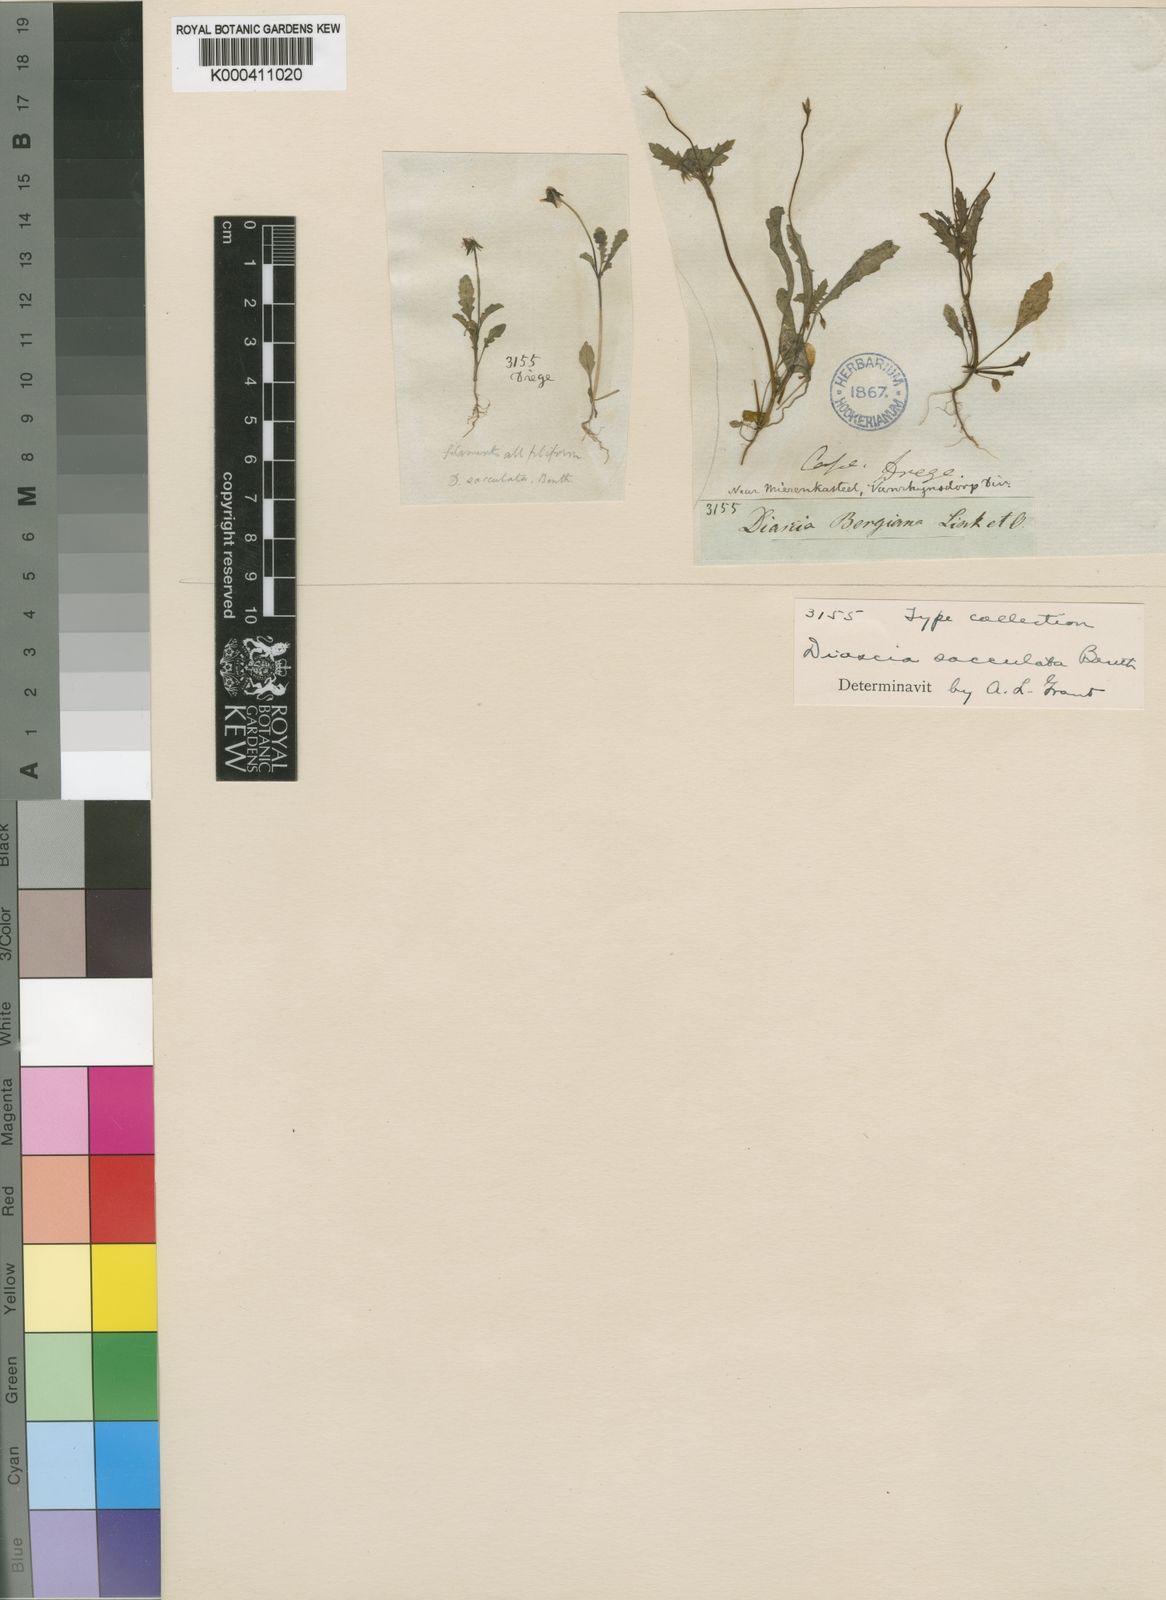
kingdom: Plantae
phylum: Tracheophyta
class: Magnoliopsida
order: Lamiales
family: Scrophulariaceae
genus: Diascia
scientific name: Diascia sacculata
